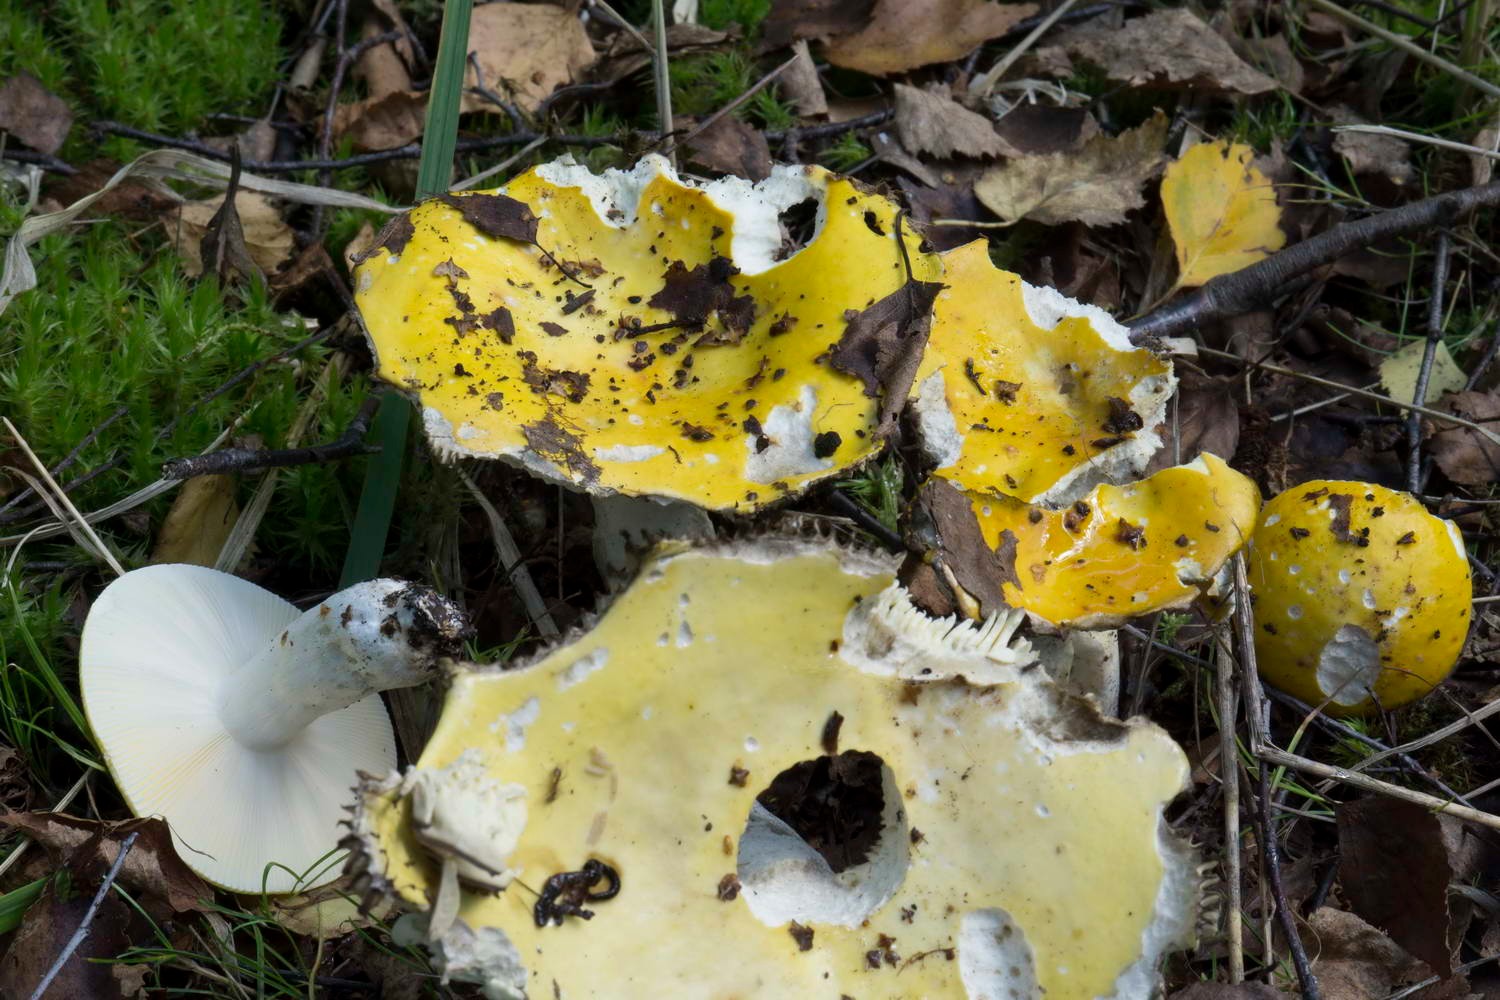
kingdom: Fungi
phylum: Basidiomycota
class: Agaricomycetes
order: Russulales
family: Russulaceae
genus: Russula
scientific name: Russula claroflava
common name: birke-skørhat
